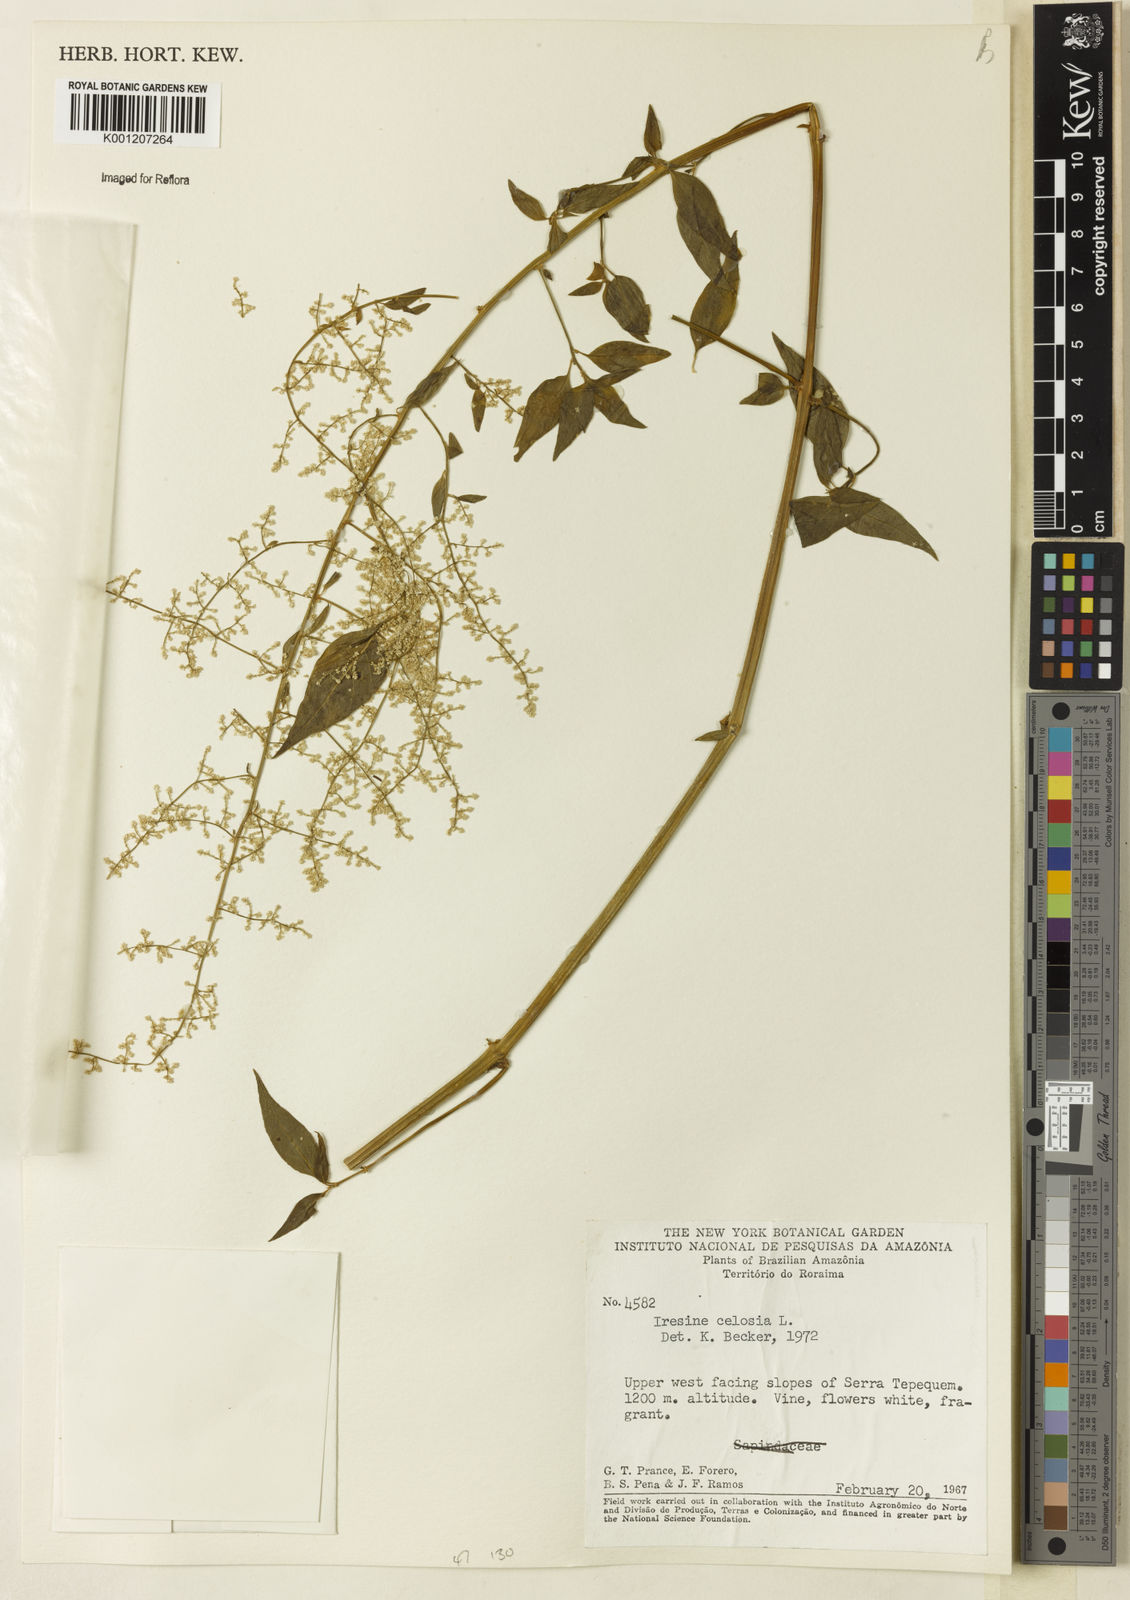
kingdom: Plantae
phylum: Tracheophyta
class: Magnoliopsida
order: Caryophyllales
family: Amaranthaceae
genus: Iresine
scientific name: Iresine rhizomatosa
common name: Juda's-bush
